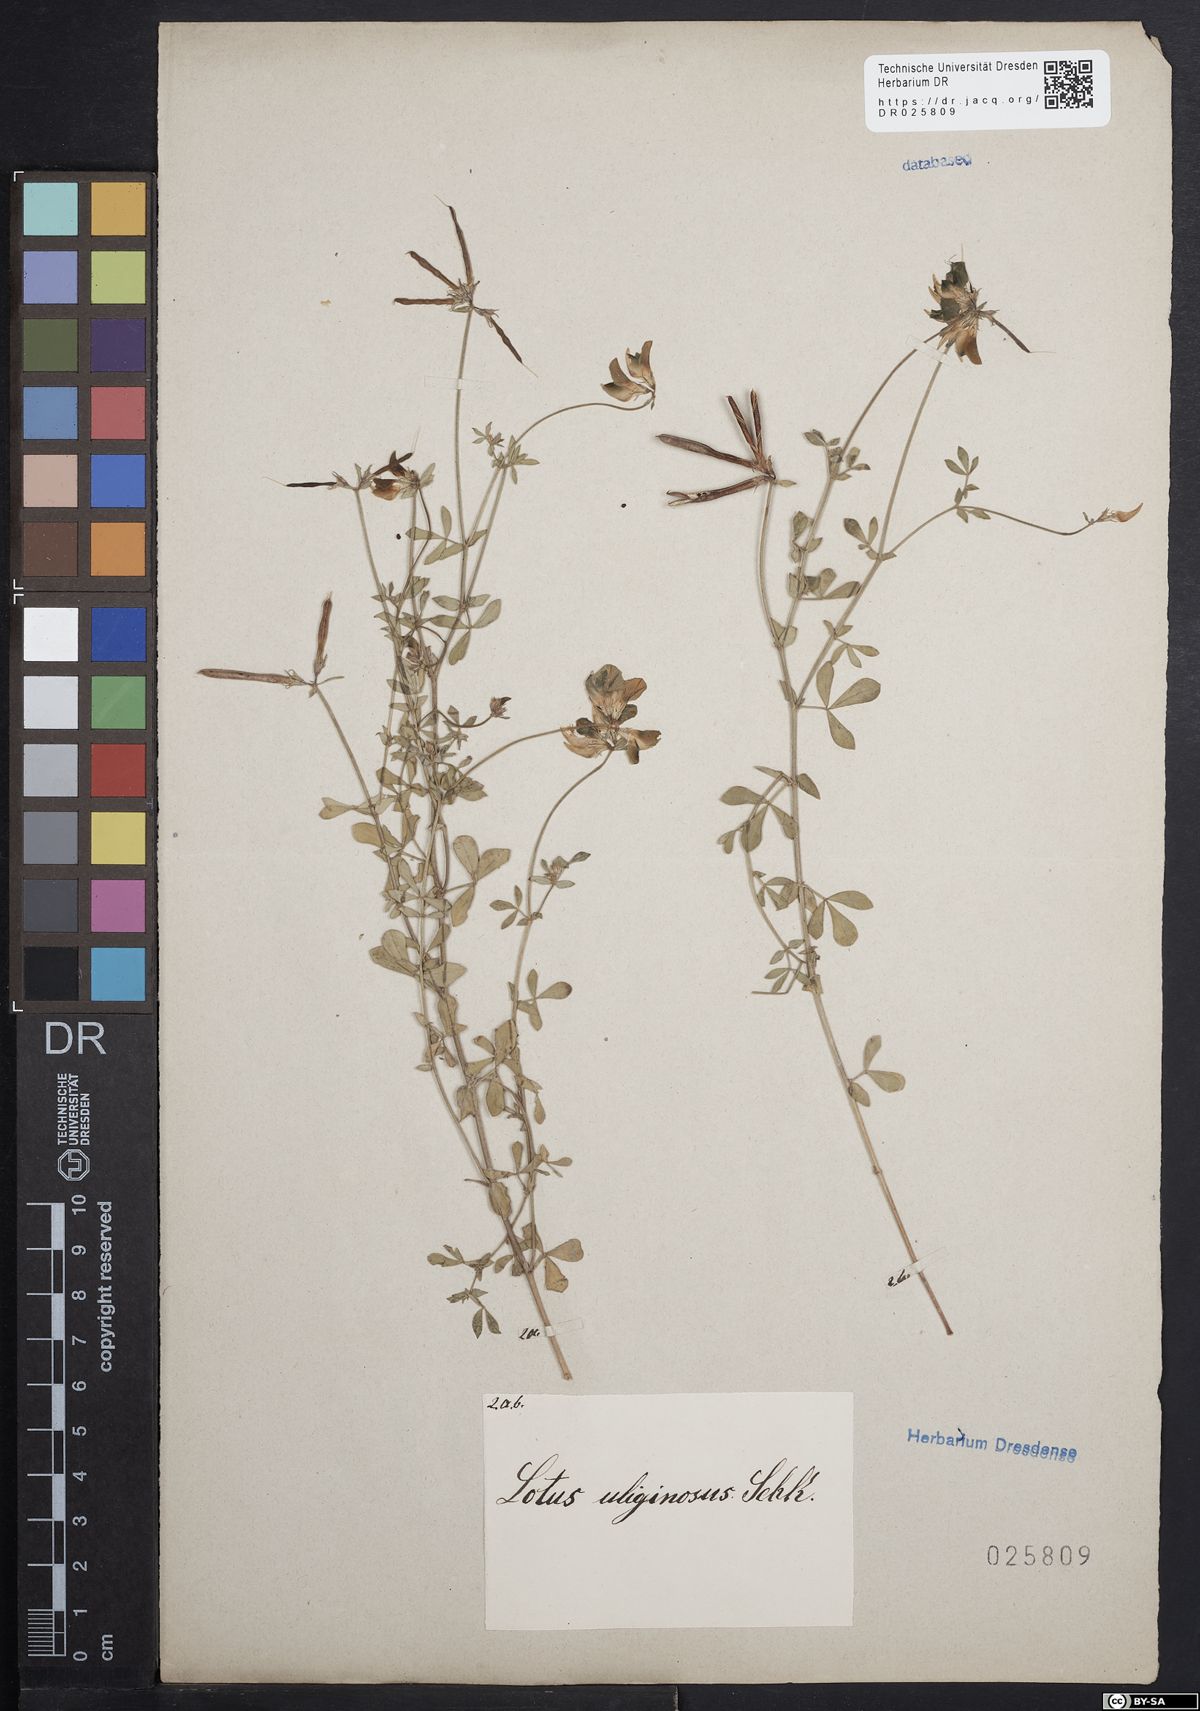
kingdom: Plantae
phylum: Tracheophyta
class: Magnoliopsida
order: Fabales
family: Fabaceae
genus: Lotus
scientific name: Lotus pedunculatus
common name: Greater birdsfoot-trefoil
